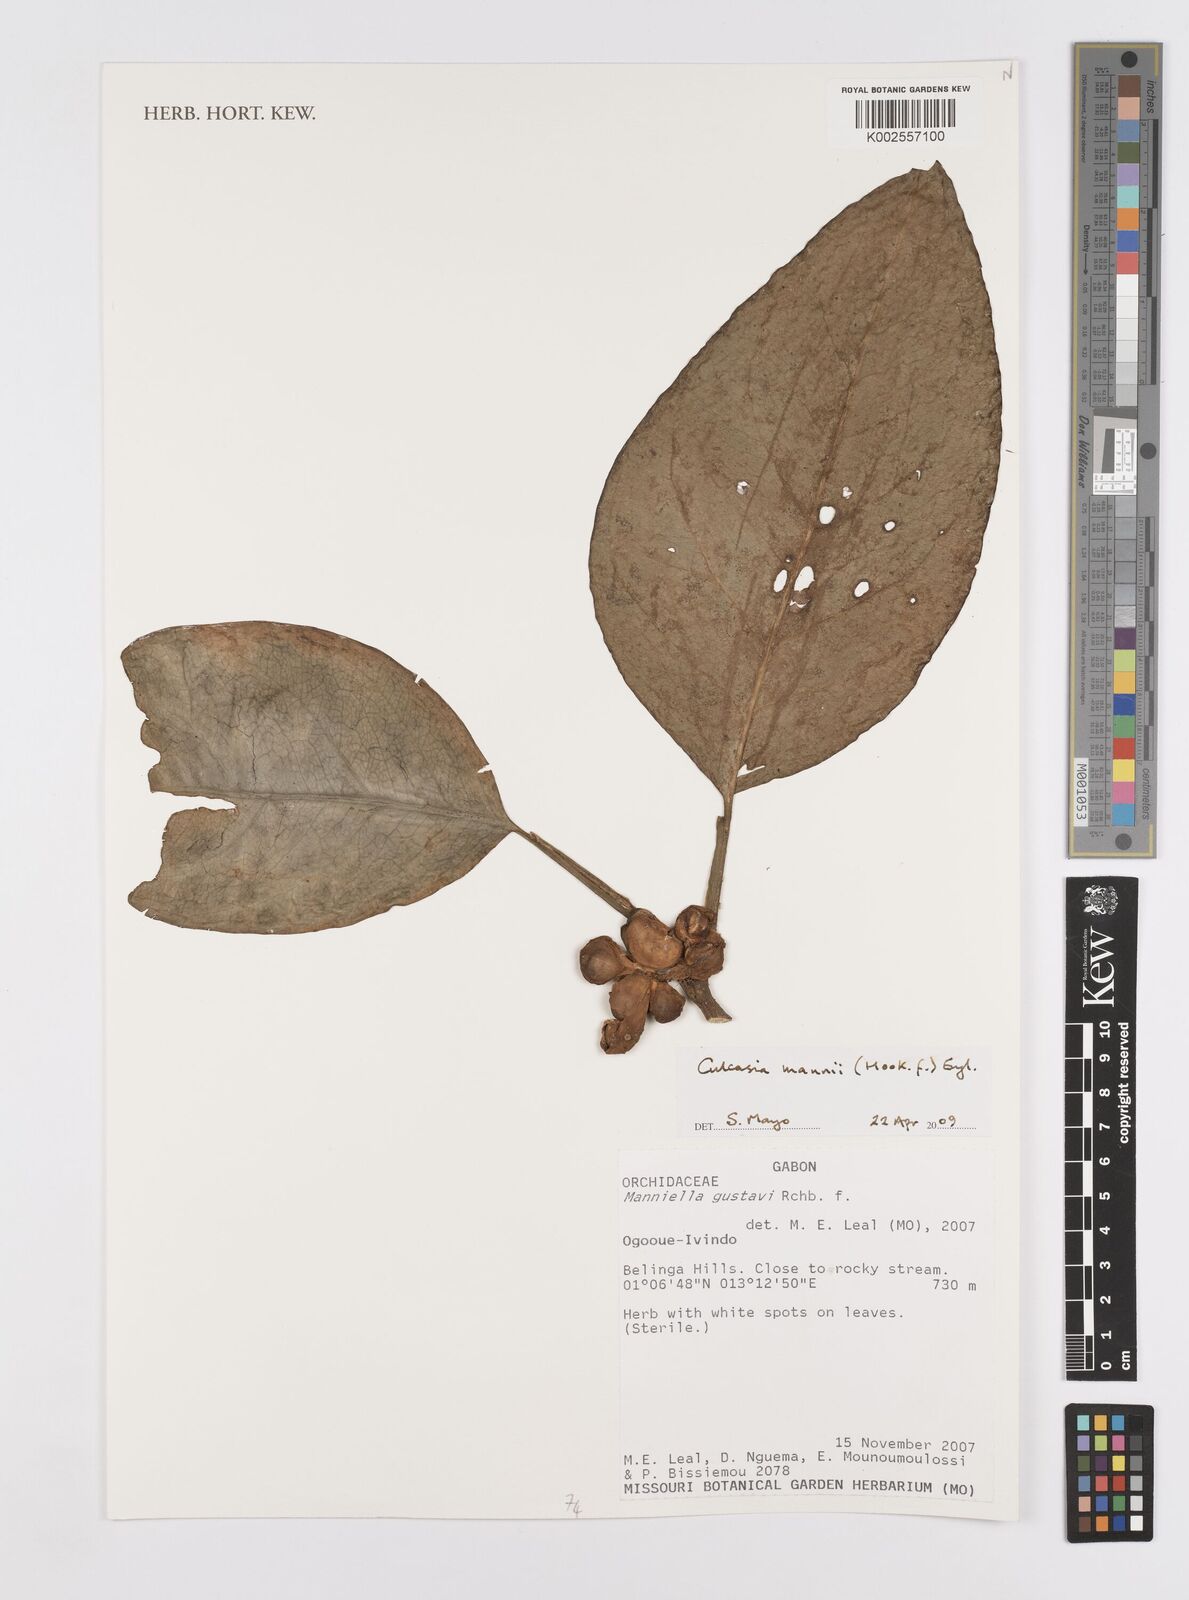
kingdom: Plantae
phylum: Tracheophyta
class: Liliopsida
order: Alismatales
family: Araceae
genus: Culcasia
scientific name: Culcasia mannii
